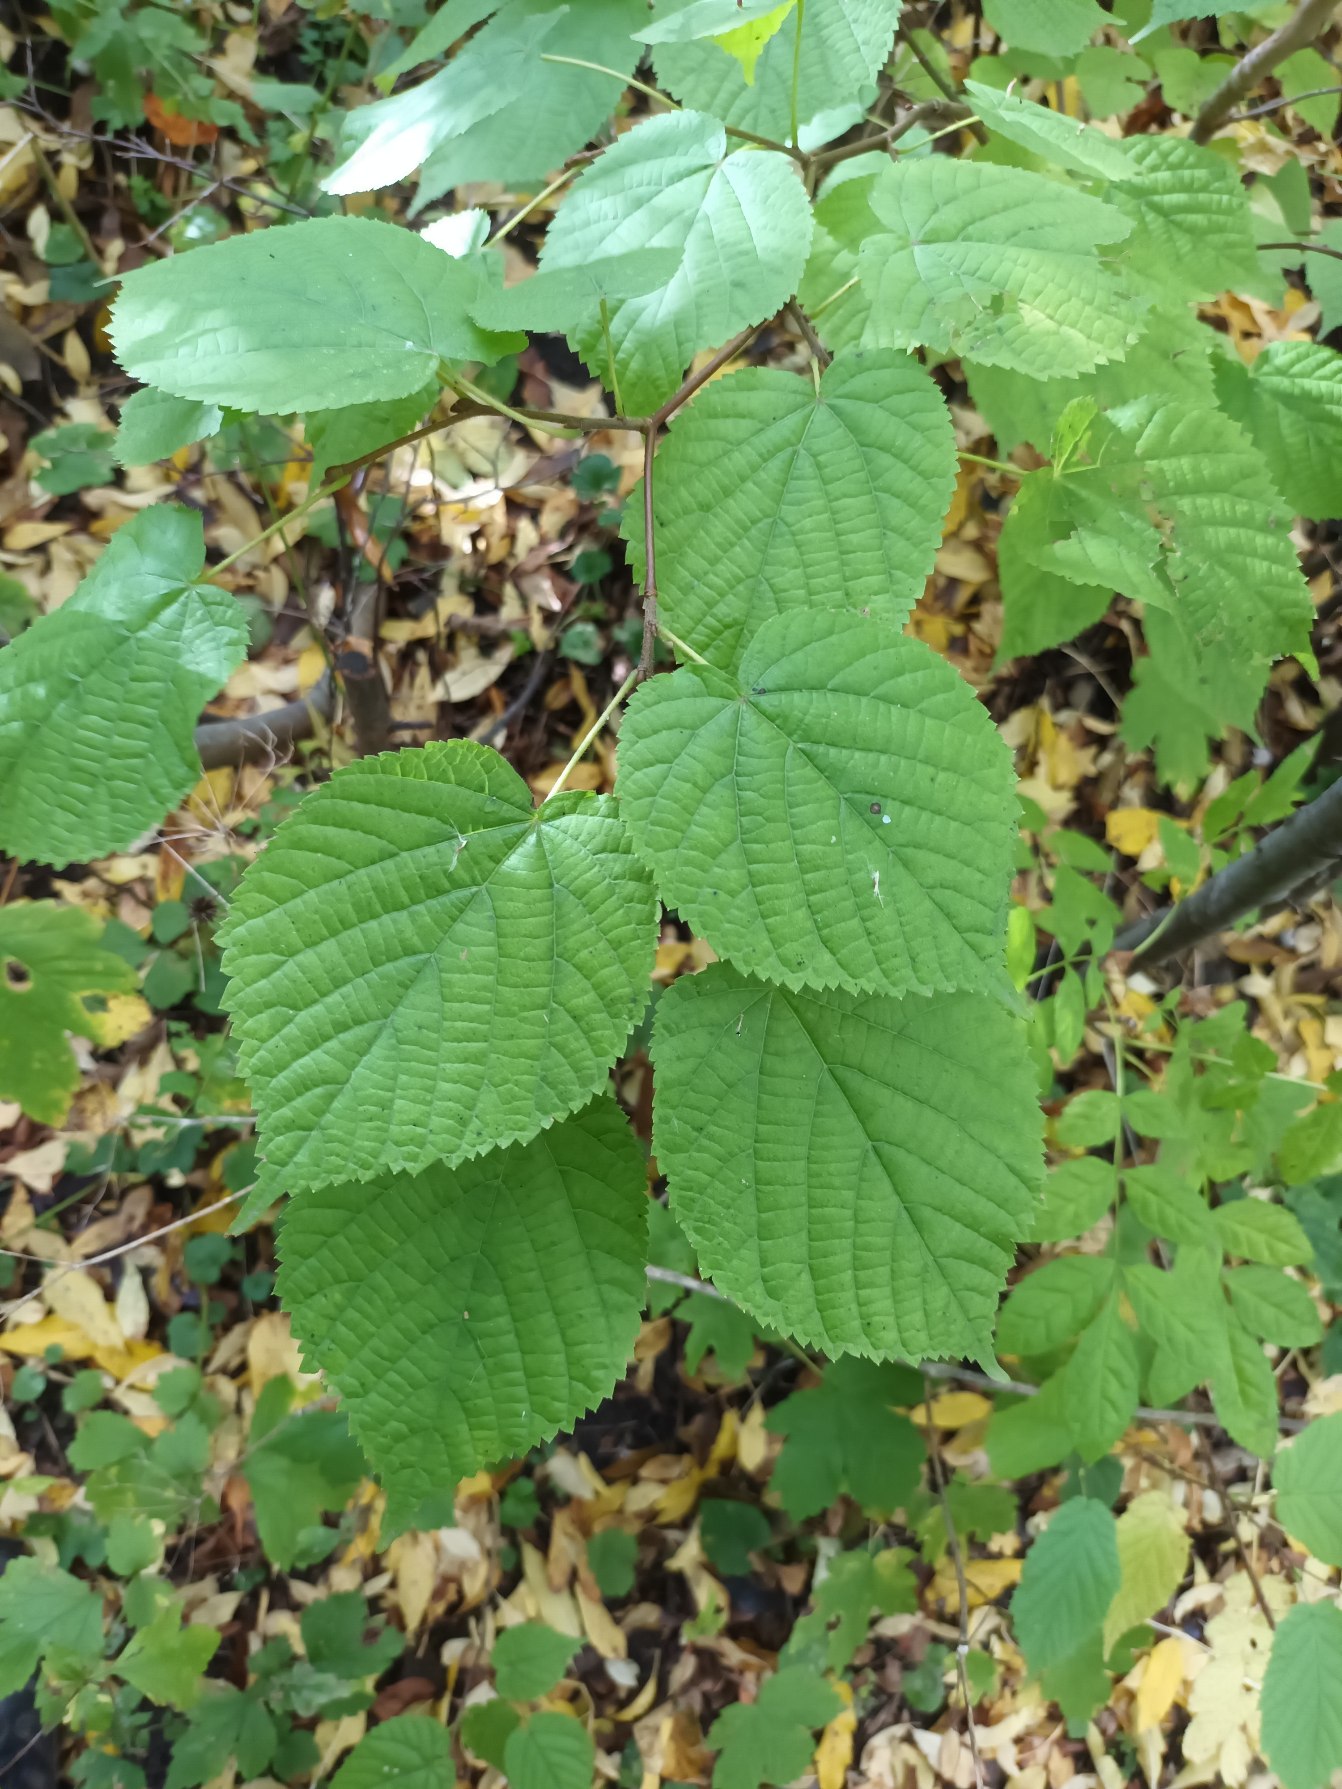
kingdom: Plantae
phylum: Tracheophyta
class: Magnoliopsida
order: Malvales
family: Malvaceae
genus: Tilia
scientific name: Tilia platyphyllos
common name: Storbladet lind
